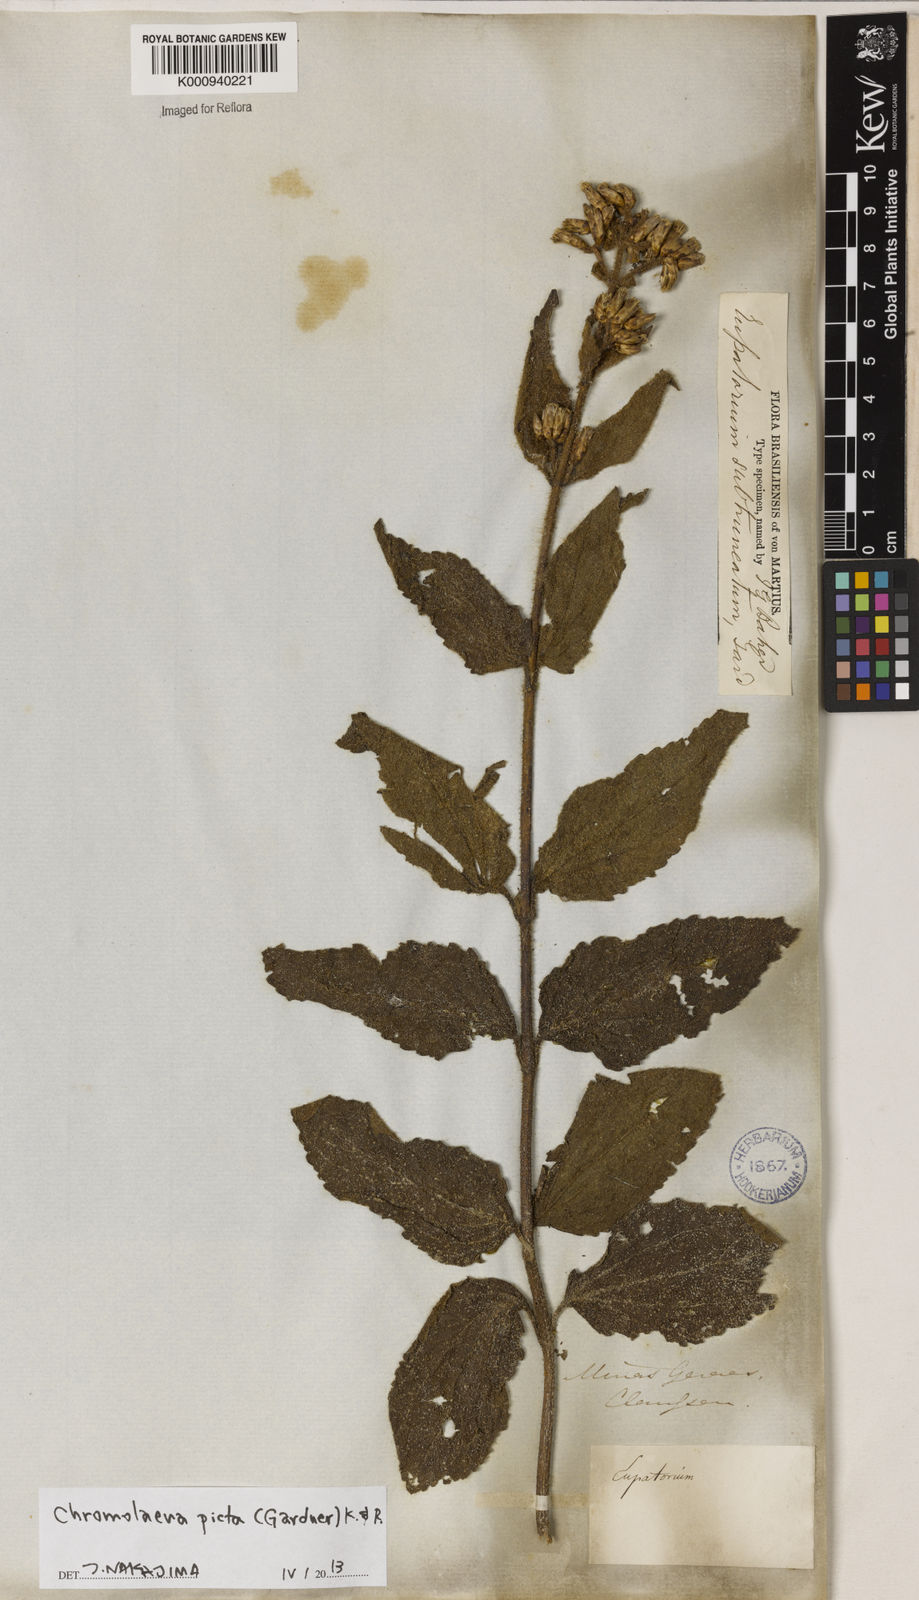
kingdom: Plantae
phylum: Tracheophyta
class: Magnoliopsida
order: Asterales
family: Asteraceae
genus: Chromolaena
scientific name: Chromolaena picta
